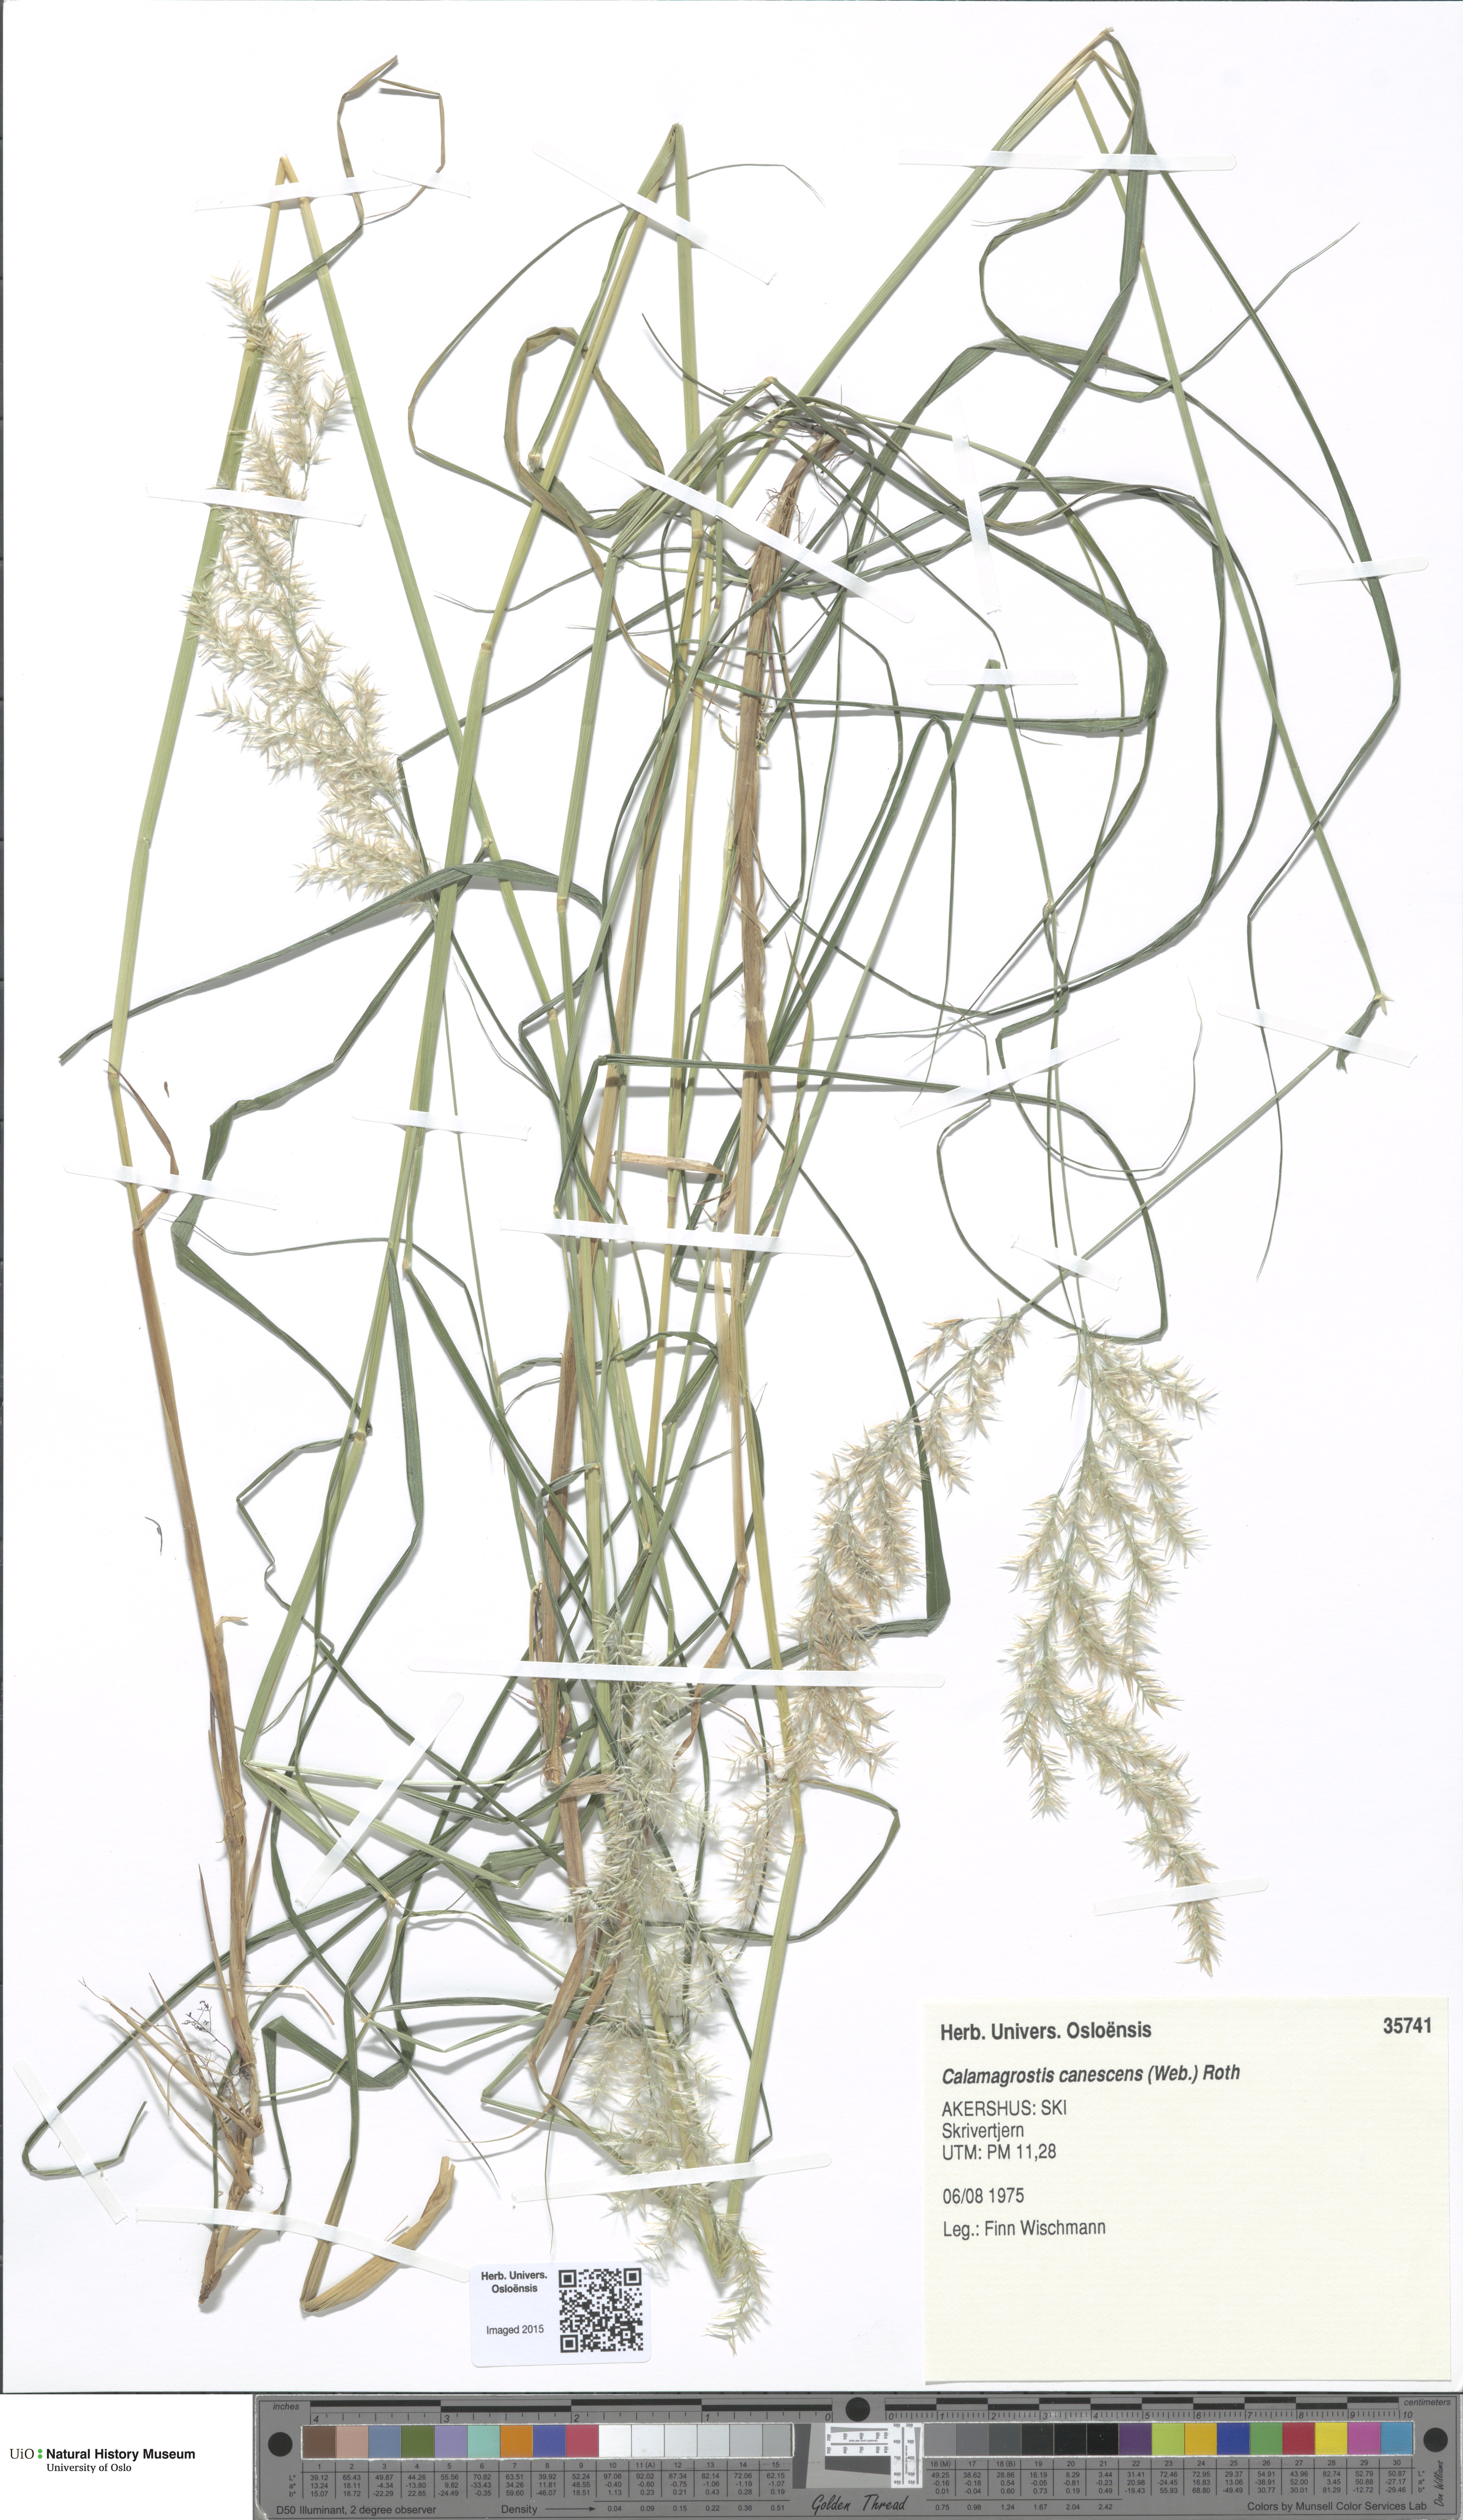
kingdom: Plantae
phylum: Tracheophyta
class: Liliopsida
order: Poales
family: Poaceae
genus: Calamagrostis
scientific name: Calamagrostis canescens
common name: Purple small-reed
